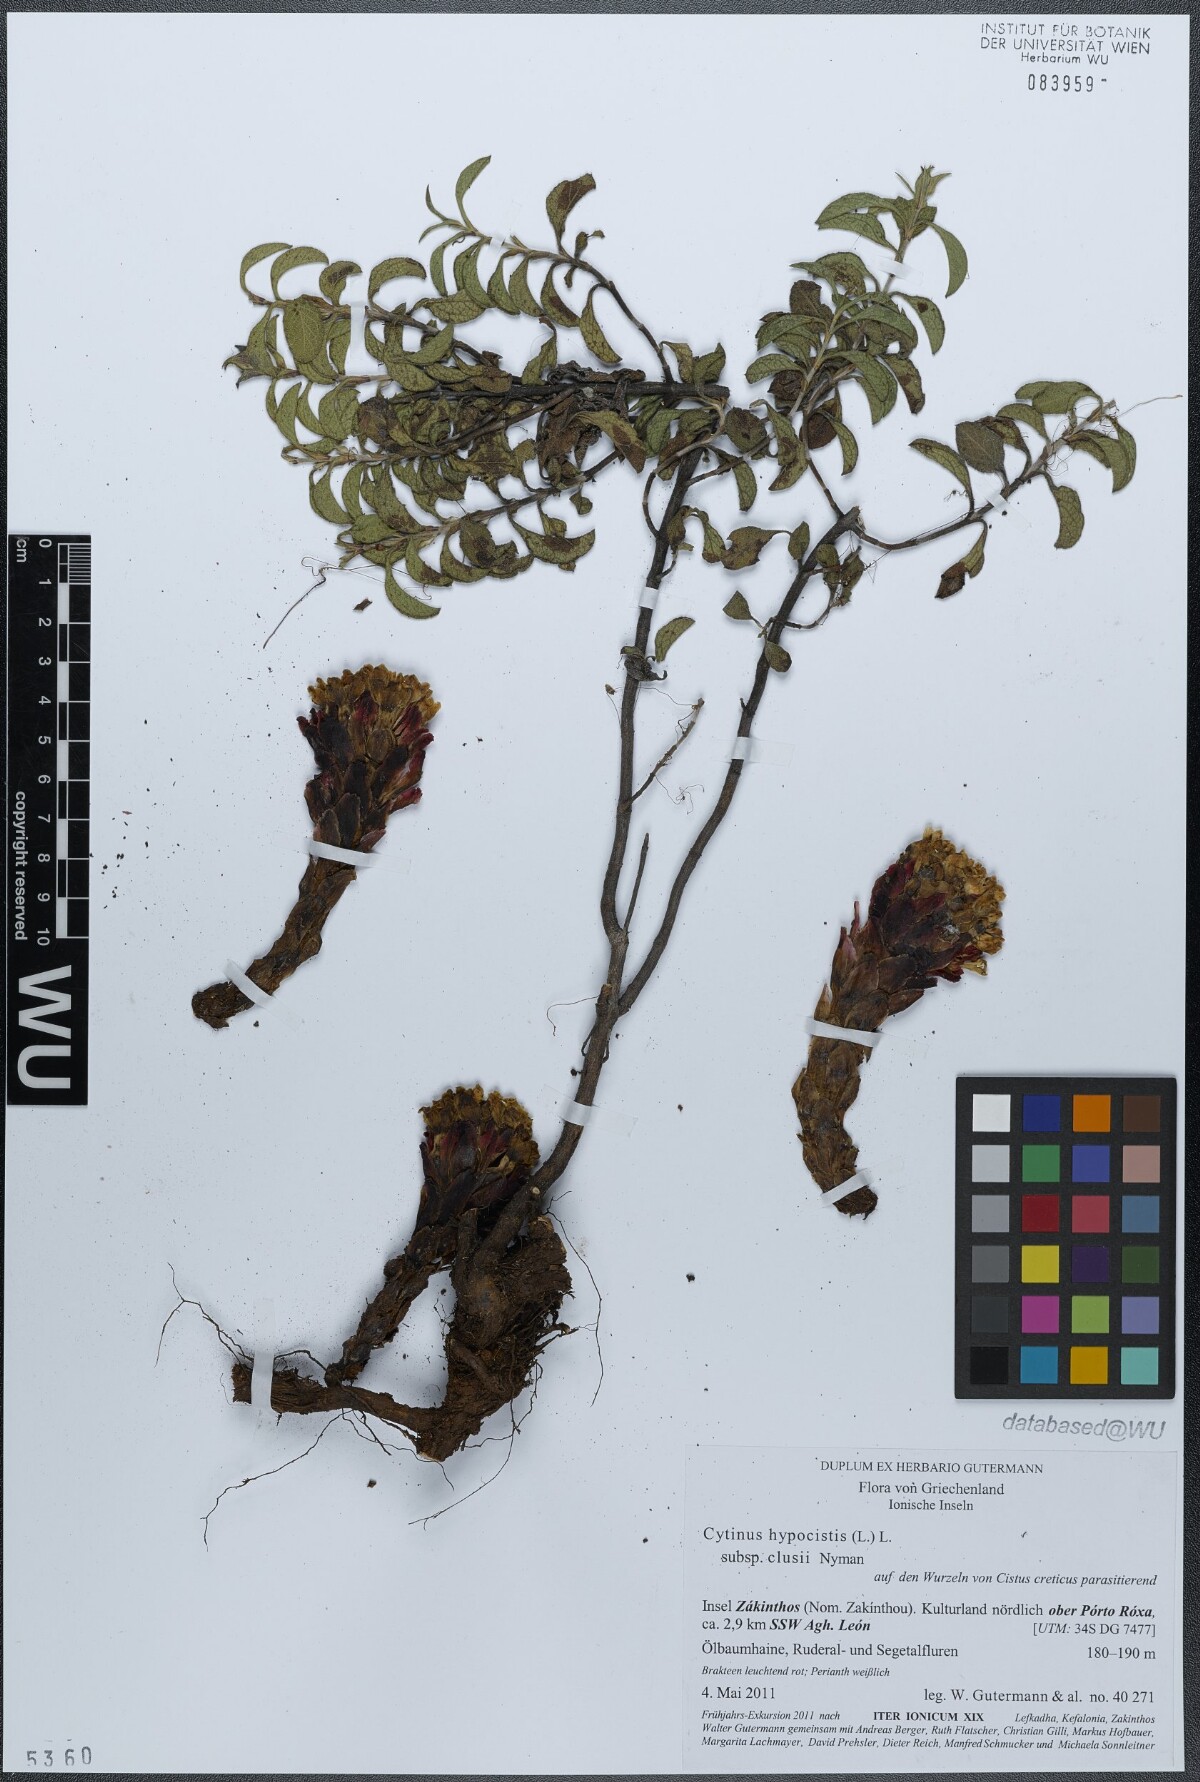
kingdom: Plantae
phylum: Tracheophyta
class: Magnoliopsida
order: Malvales
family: Cytinaceae
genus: Cytinus
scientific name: Cytinus ruber
